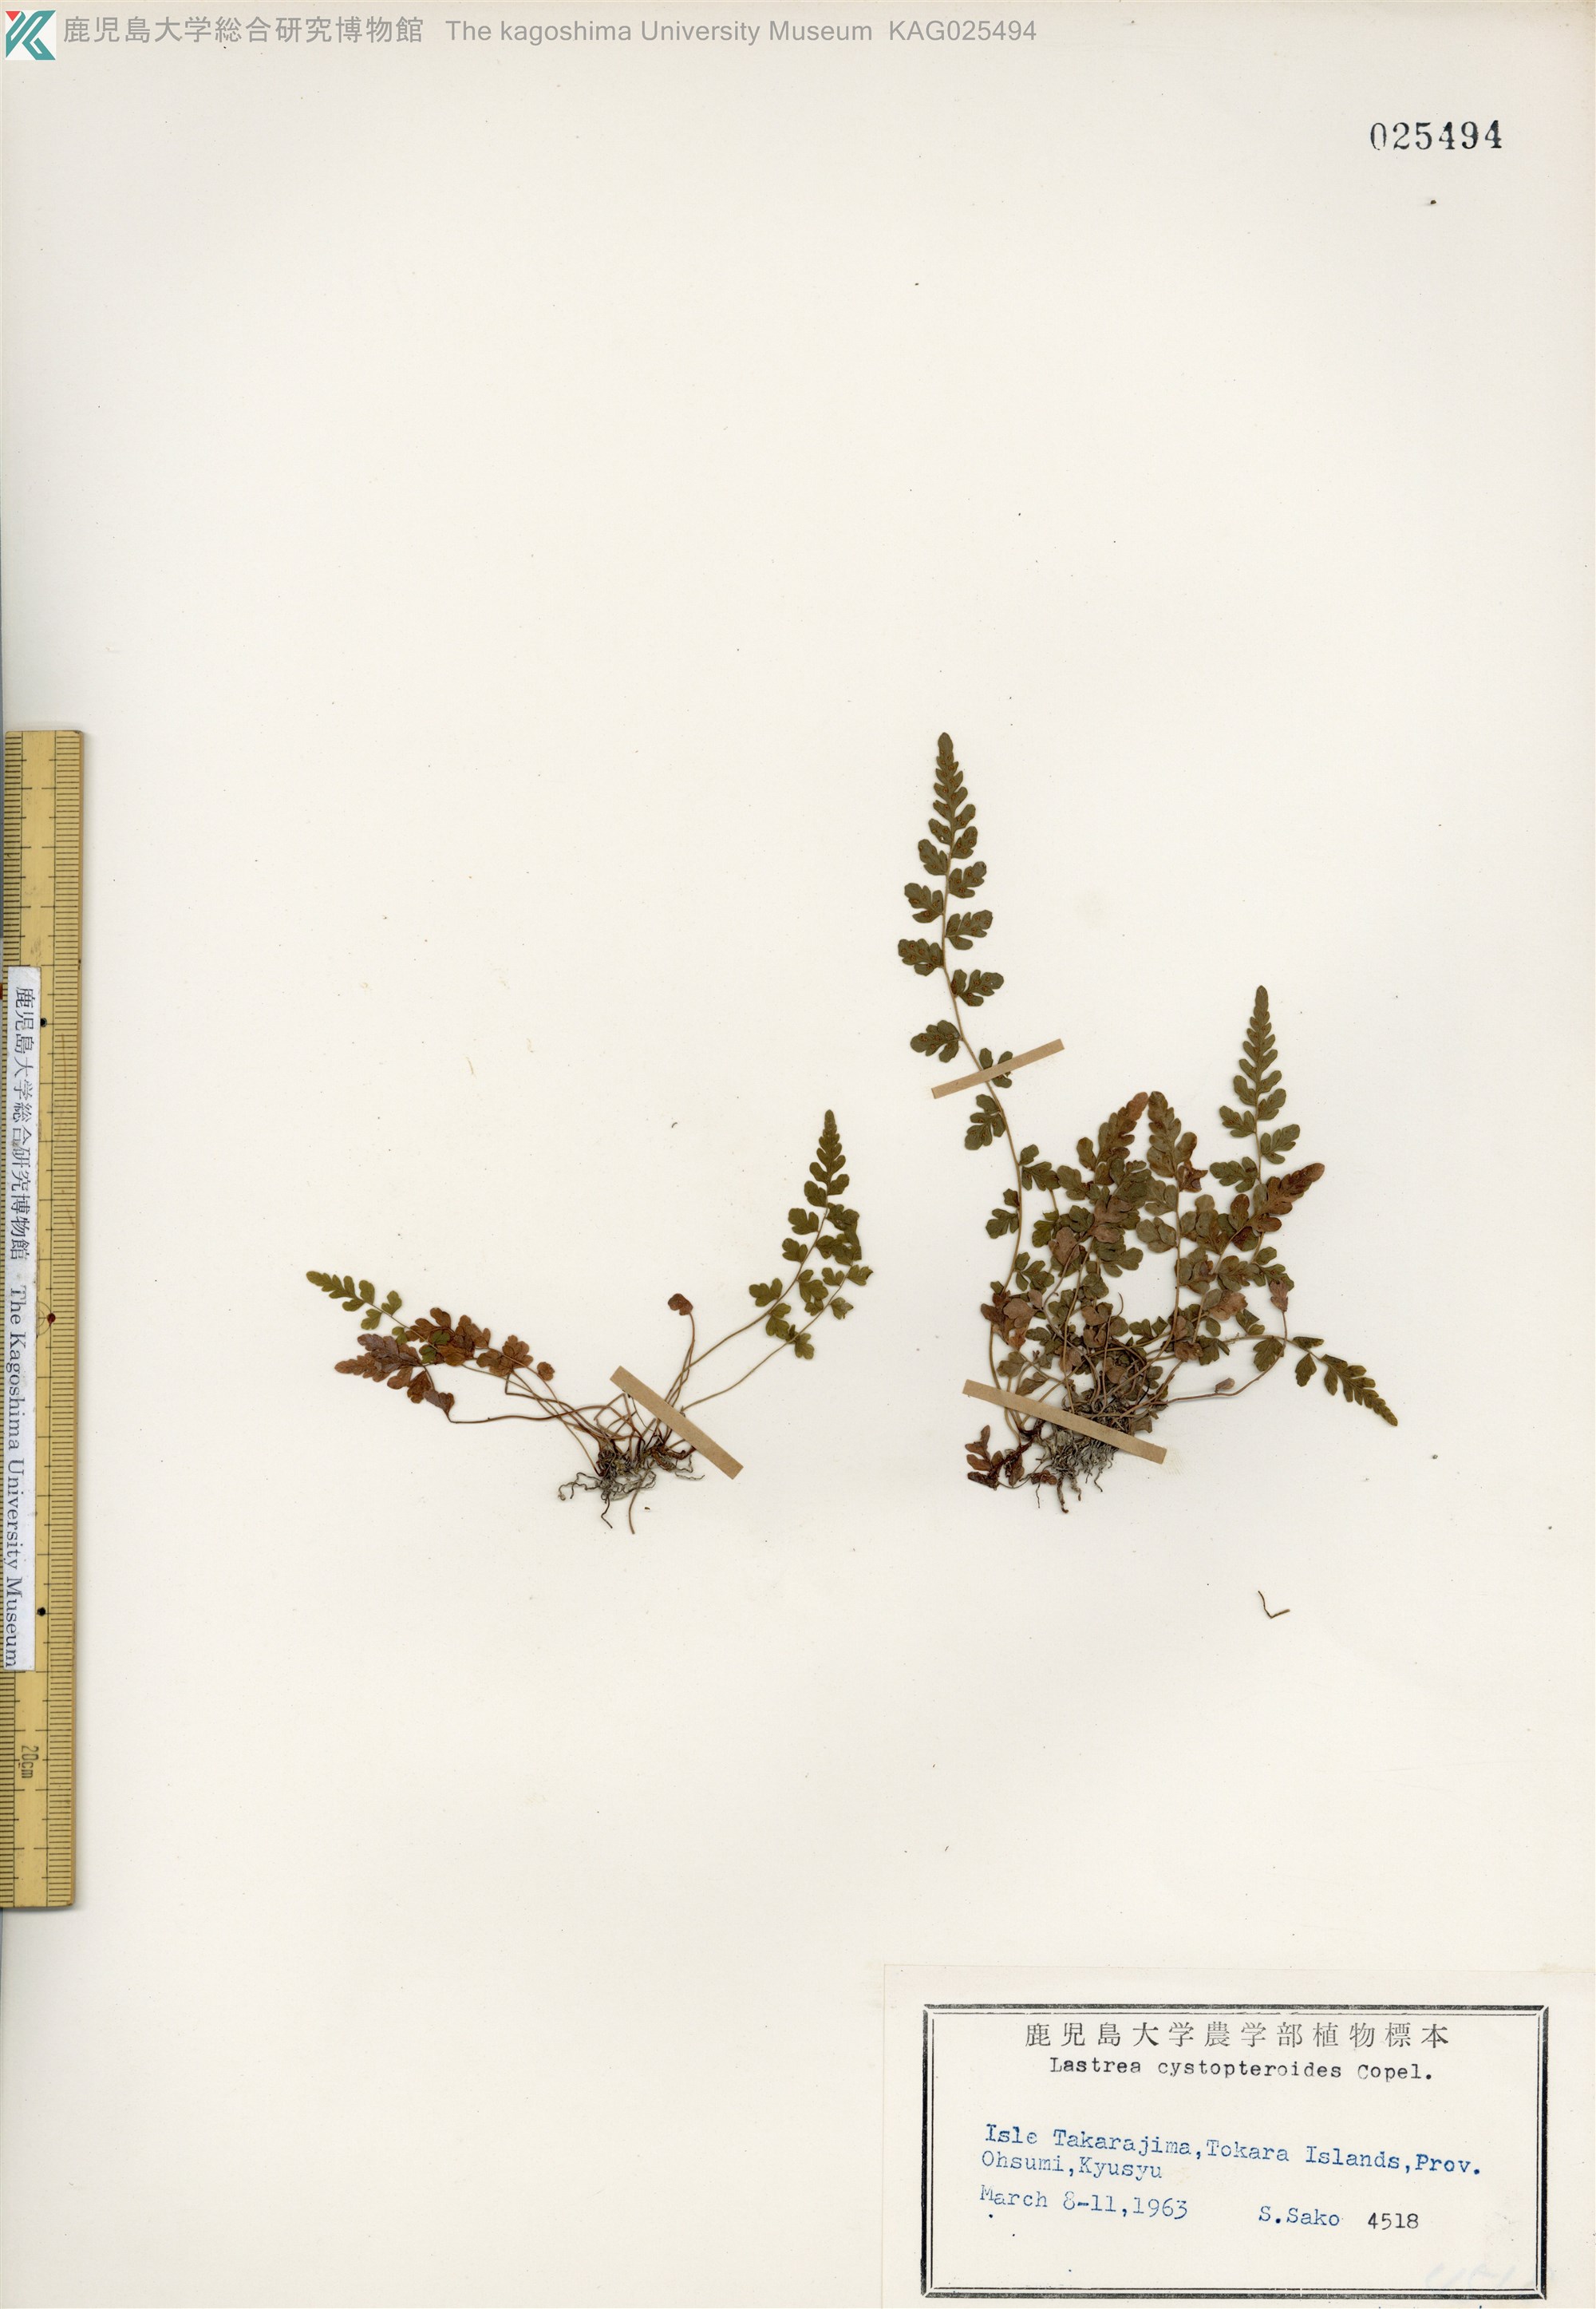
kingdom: Plantae
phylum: Tracheophyta
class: Polypodiopsida
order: Polypodiales
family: Thelypteridaceae
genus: Amauropelta
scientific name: Amauropelta cystopteroides
